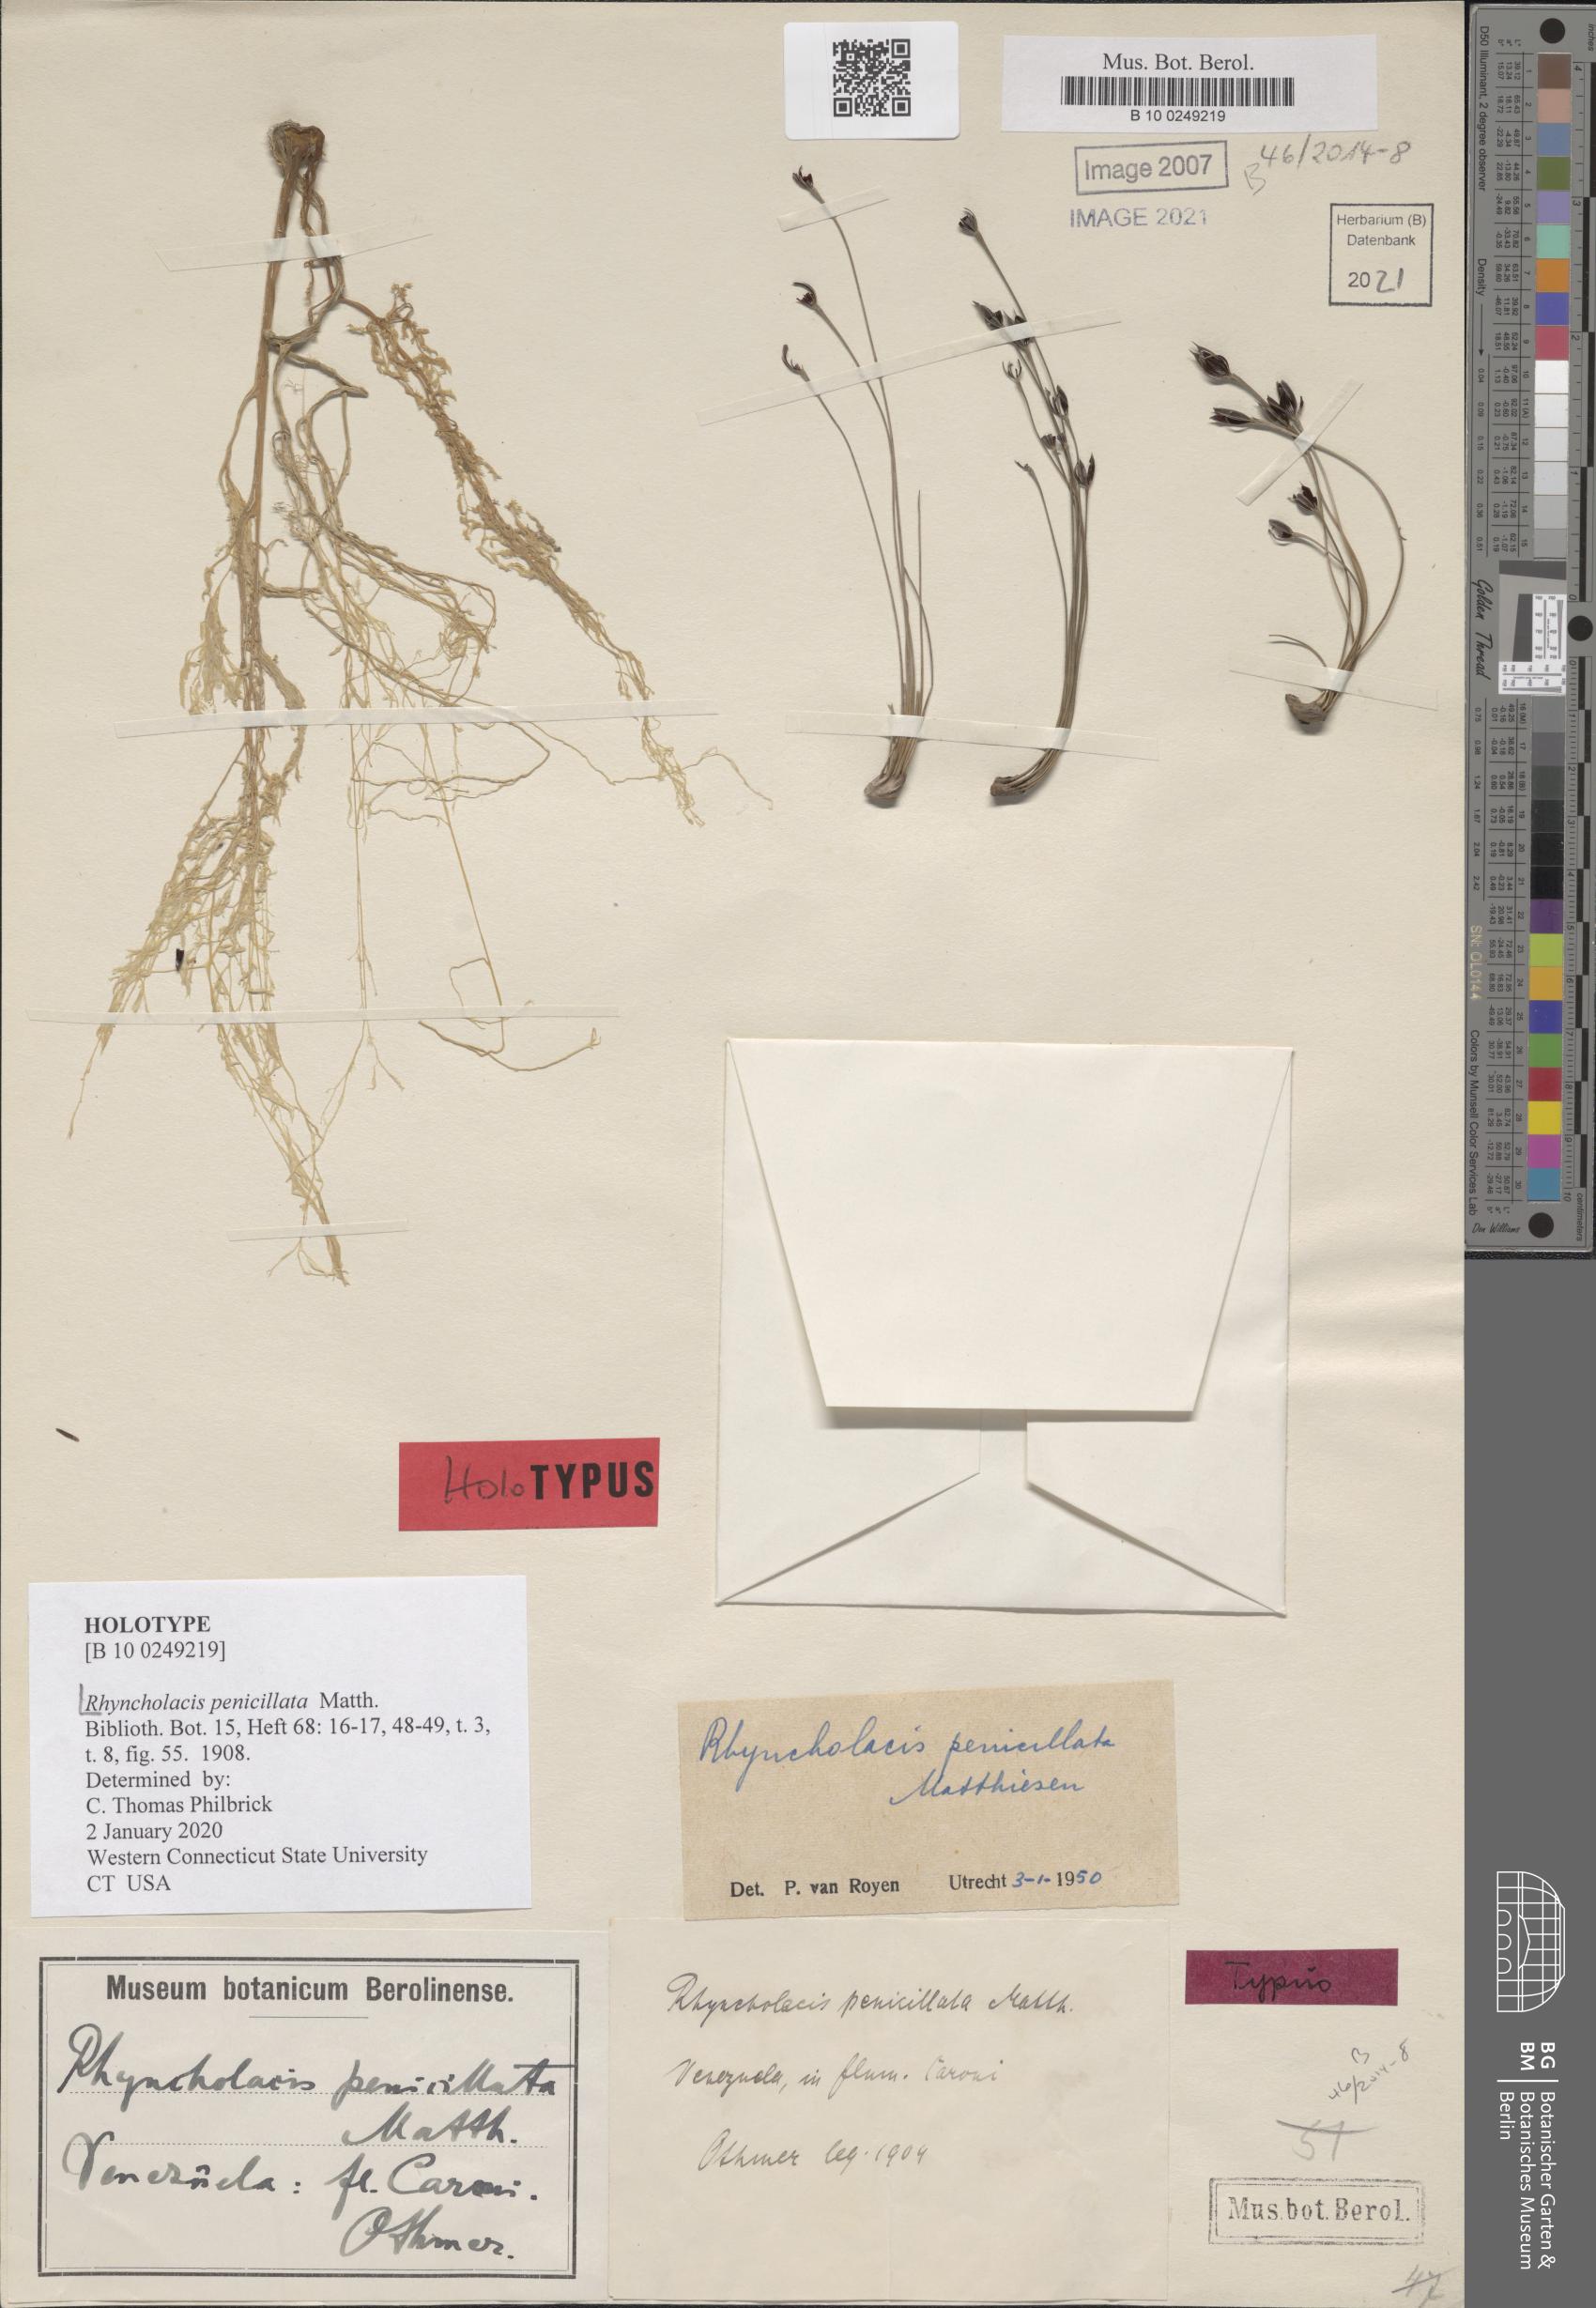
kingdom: Plantae
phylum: Tracheophyta
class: Magnoliopsida
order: Malpighiales
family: Podostemaceae
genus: Rhyncholacis
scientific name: Rhyncholacis penicillata
